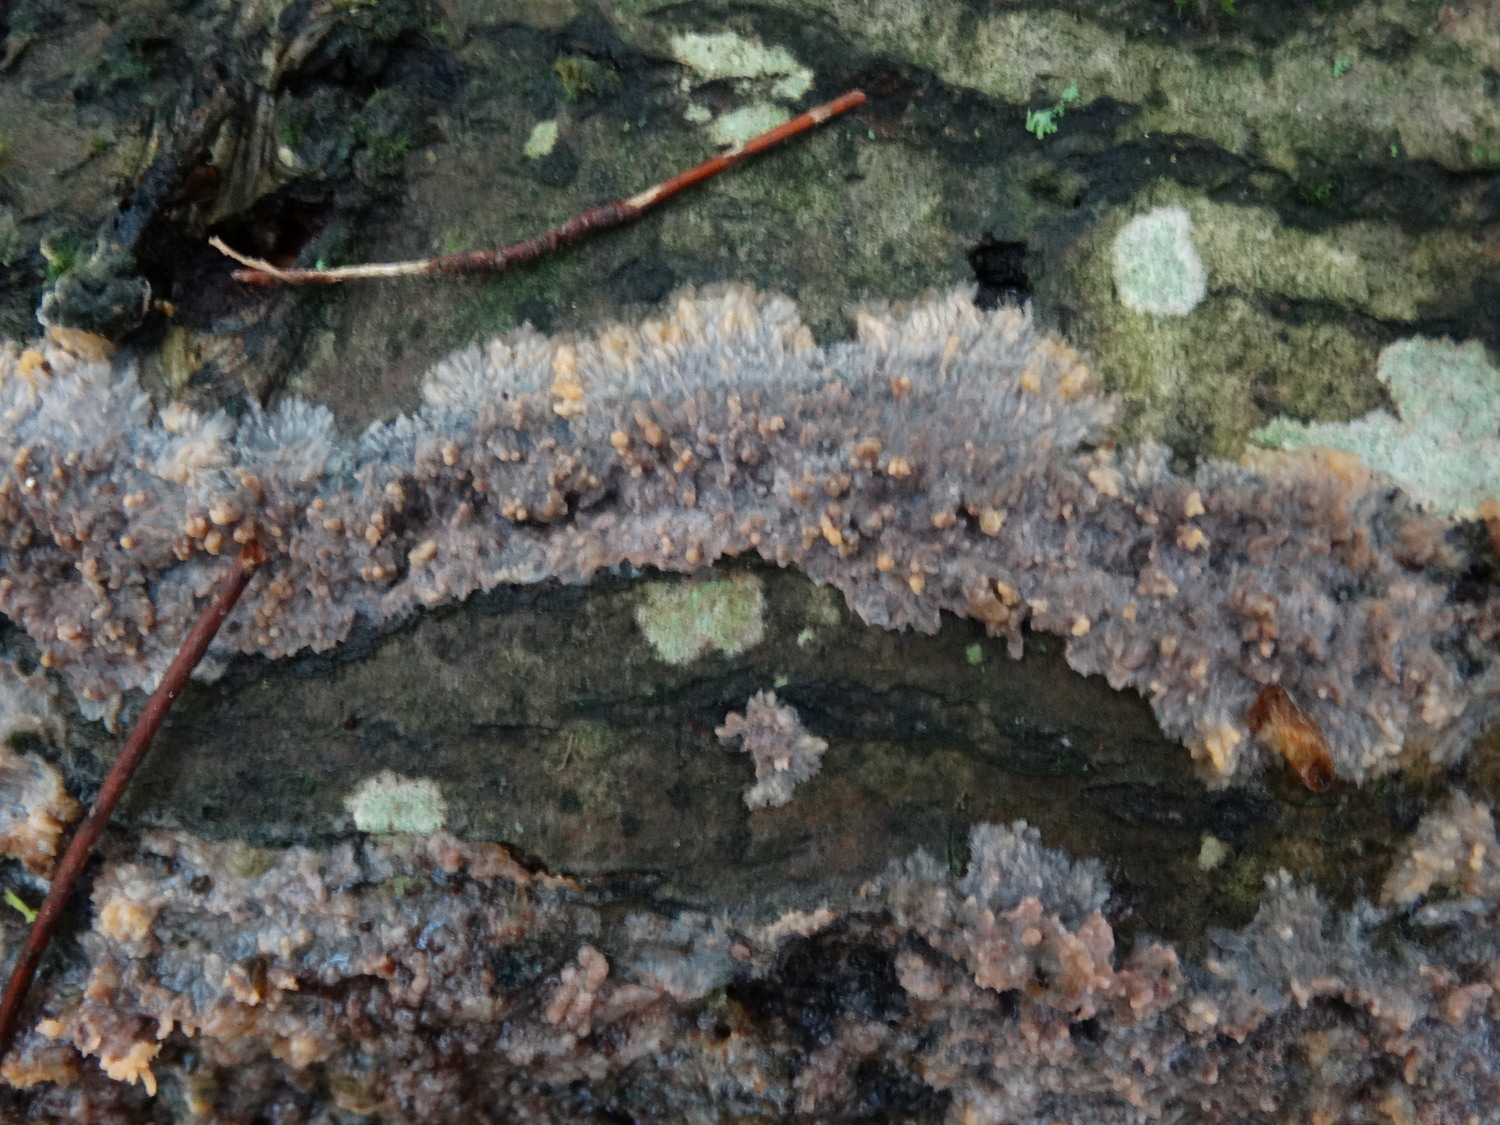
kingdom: Fungi
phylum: Basidiomycota
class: Agaricomycetes
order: Polyporales
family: Meruliaceae
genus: Phlebia
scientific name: Phlebia radiata
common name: stråle-åresvamp
